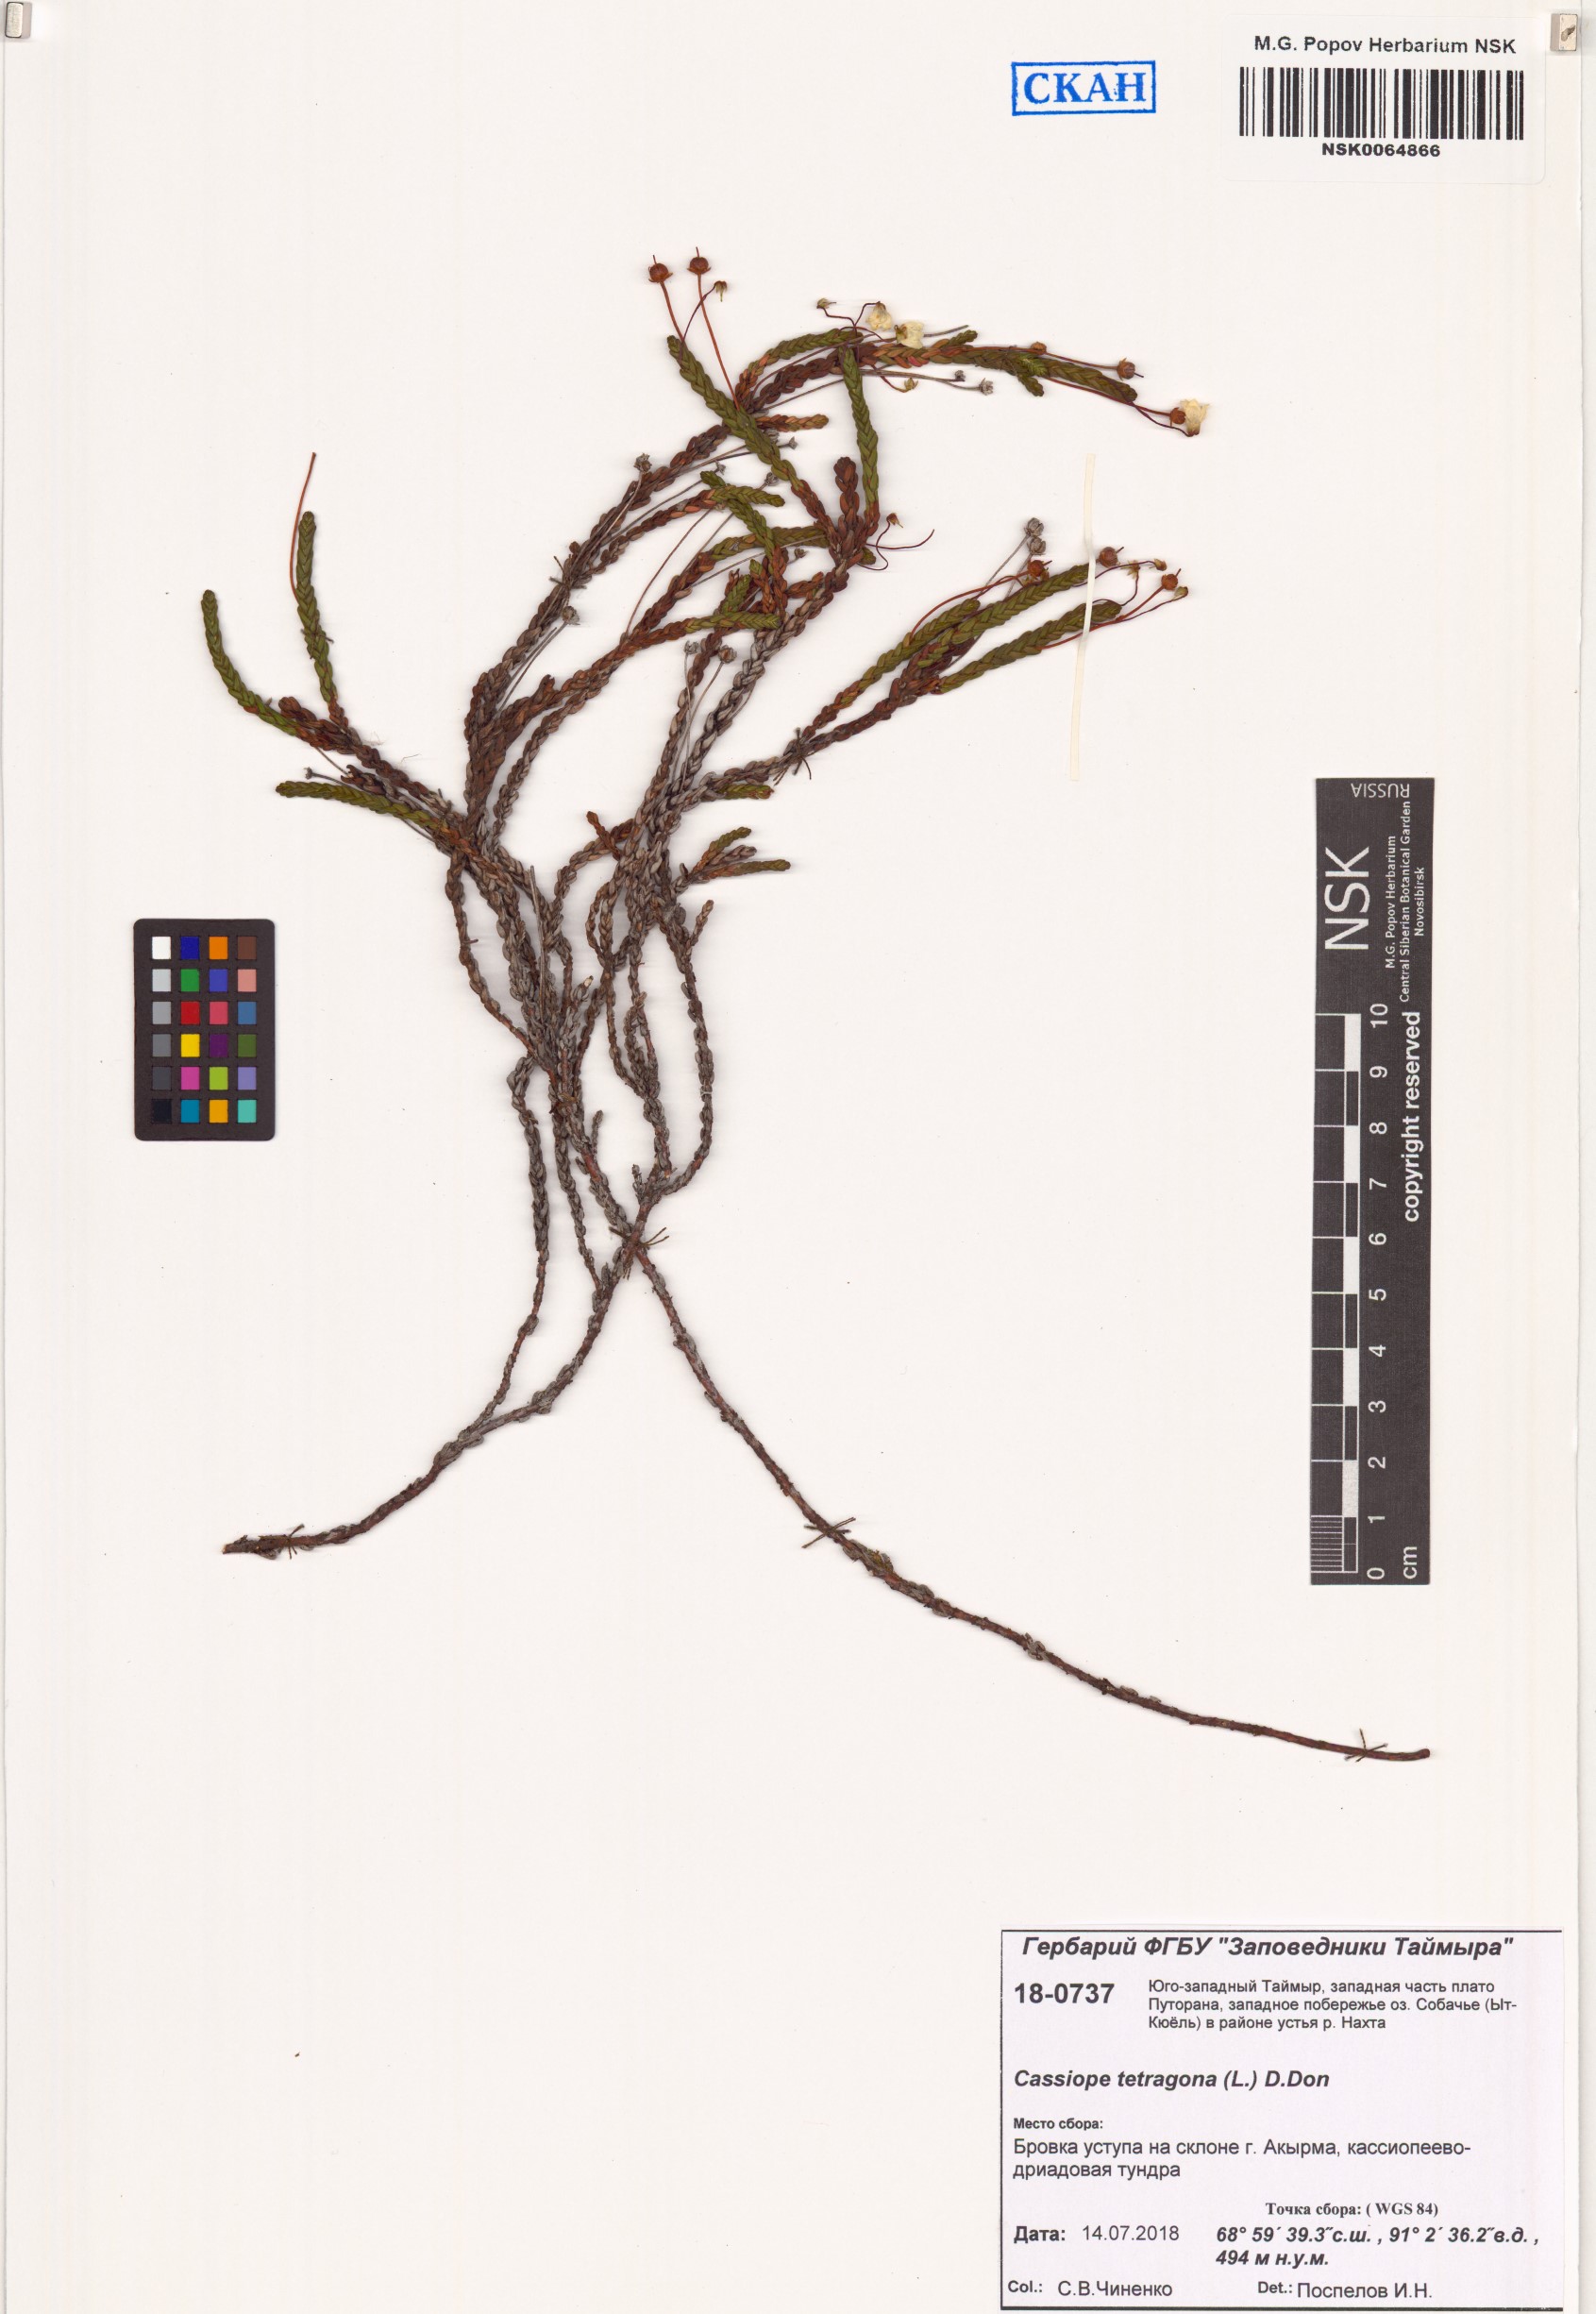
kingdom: Plantae
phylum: Tracheophyta
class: Magnoliopsida
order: Ericales
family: Ericaceae
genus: Cassiope
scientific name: Cassiope tetragona
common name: Arctic bell heather
